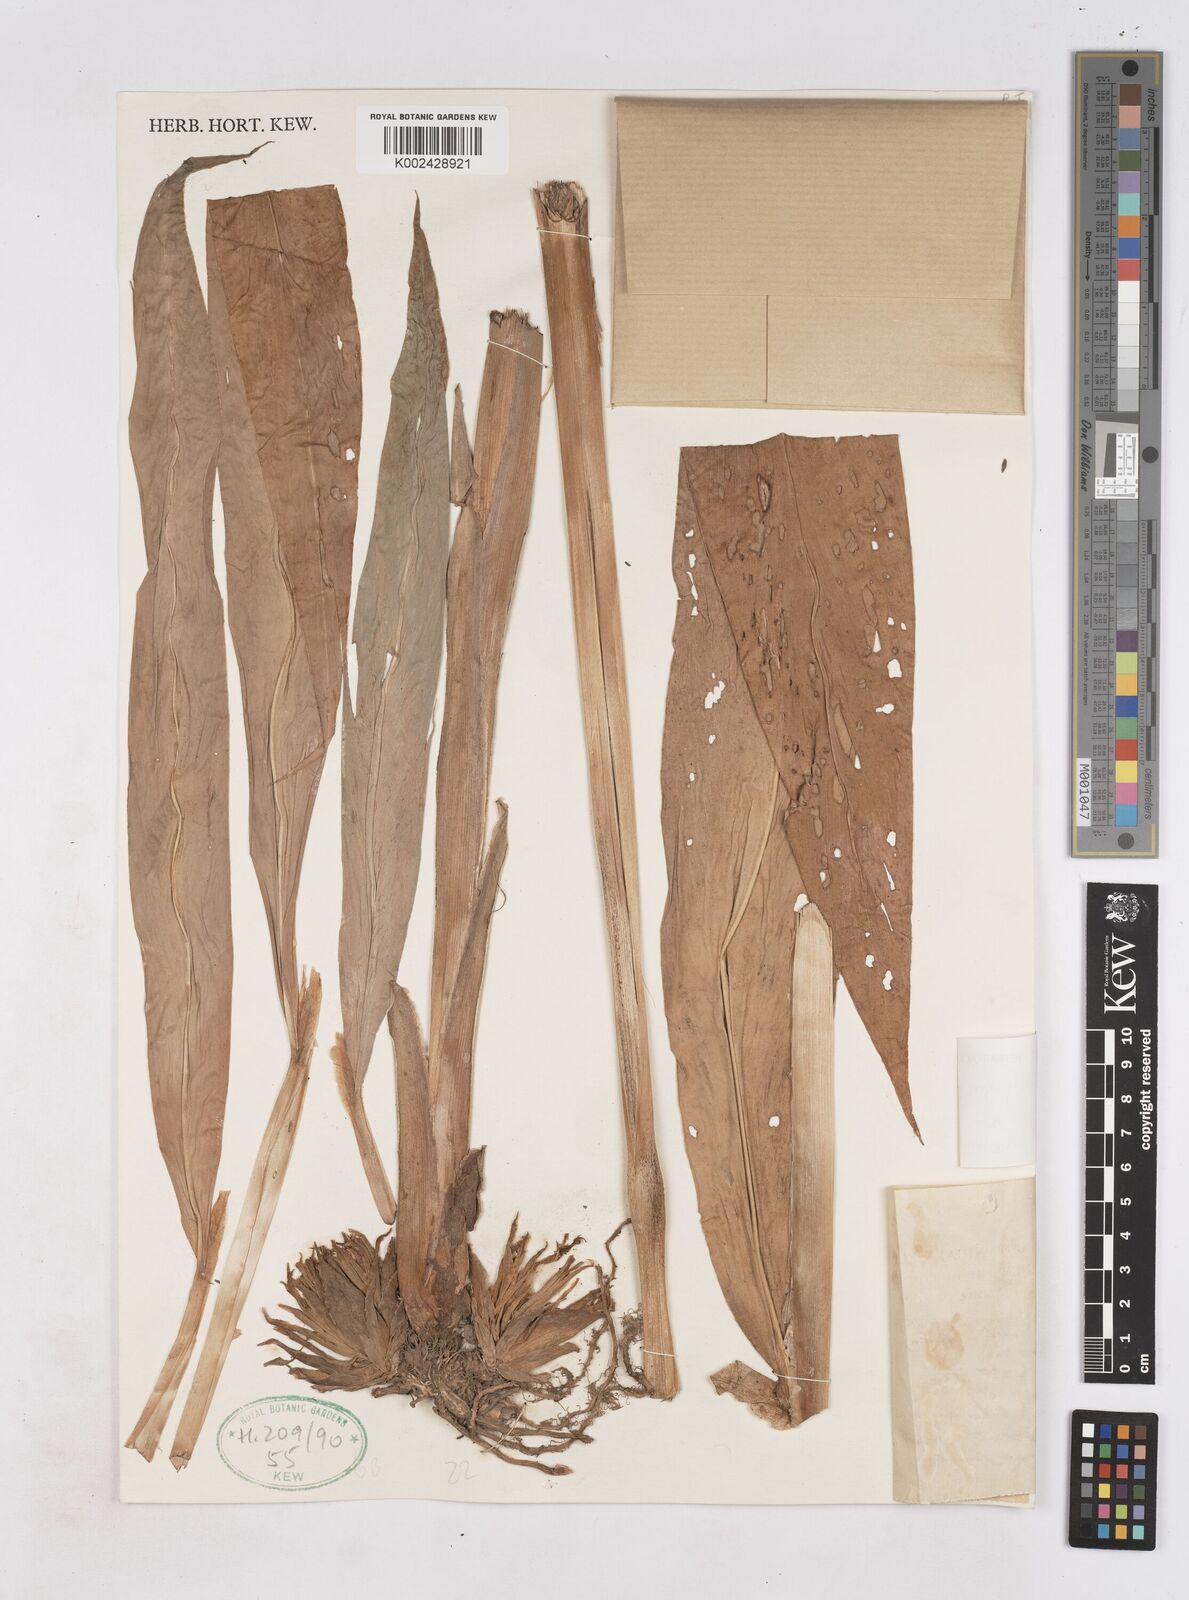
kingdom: Plantae
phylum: Tracheophyta
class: Liliopsida
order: Zingiberales
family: Zingiberaceae
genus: Zingiber
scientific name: Zingiber mekongense
